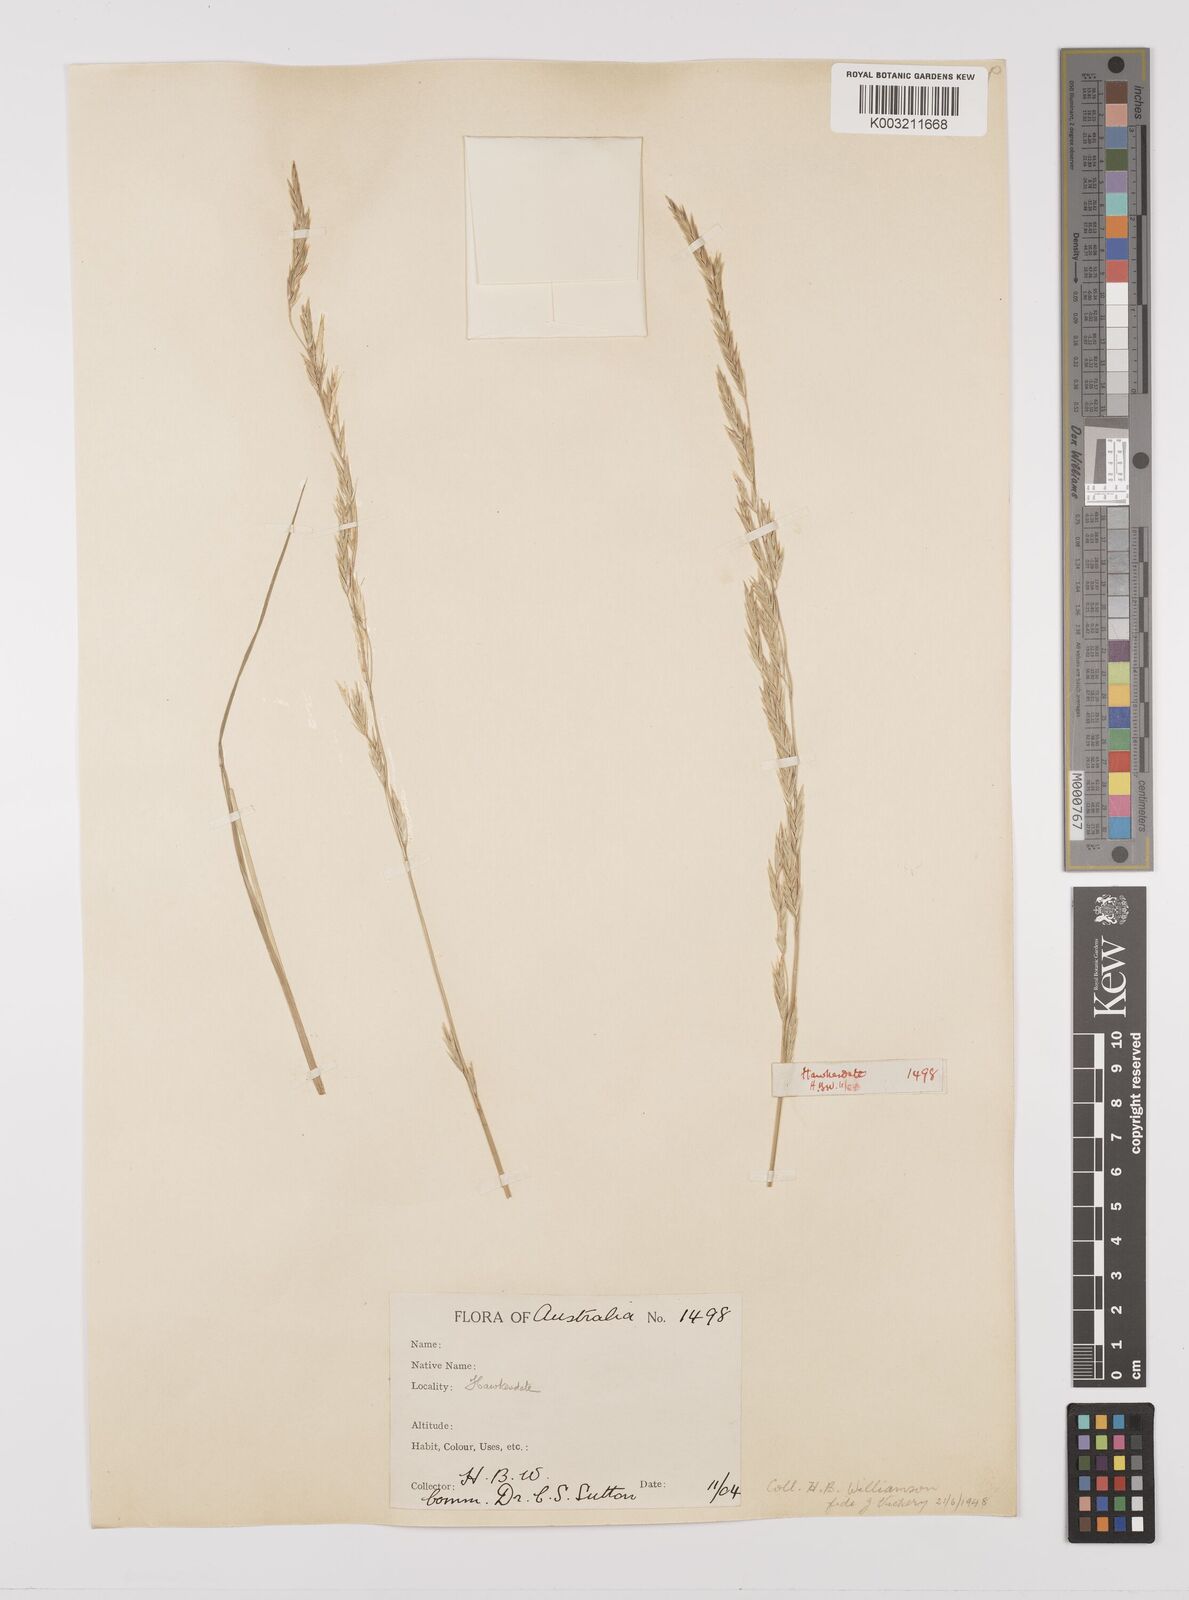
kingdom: Plantae
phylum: Tracheophyta
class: Liliopsida
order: Poales
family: Poaceae
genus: Glyceria
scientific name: Glyceria australis
